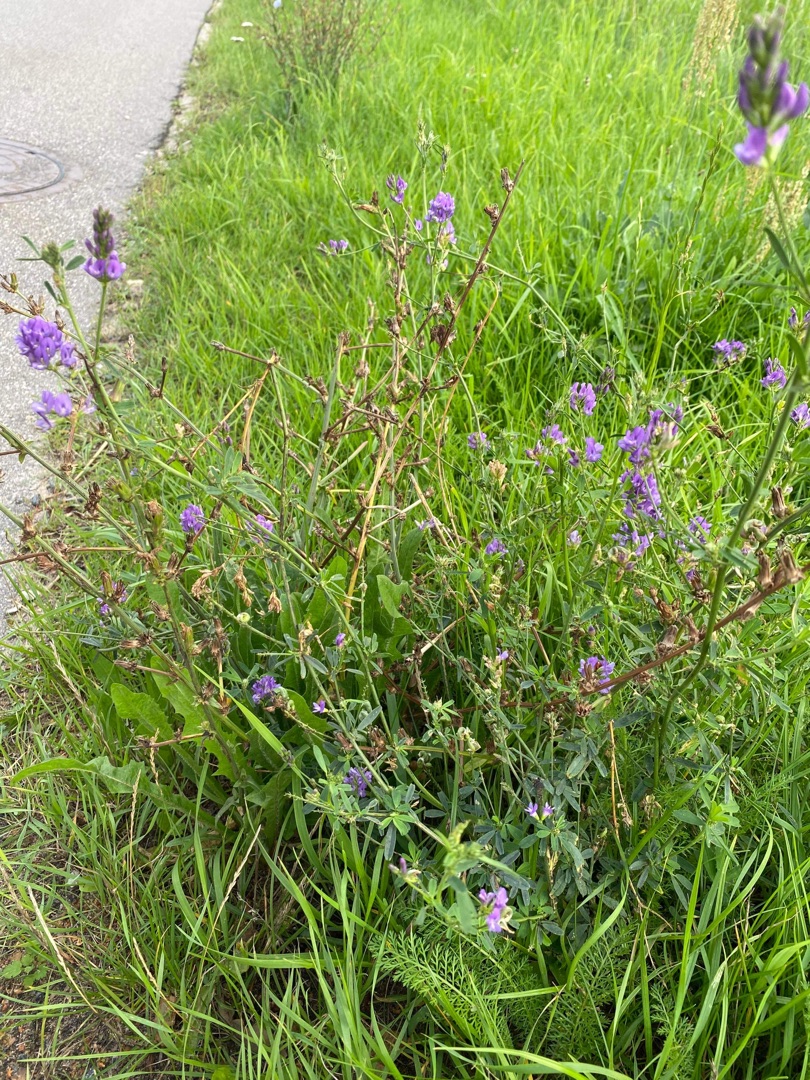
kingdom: Plantae
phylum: Tracheophyta
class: Magnoliopsida
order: Fabales
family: Fabaceae
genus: Medicago
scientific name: Medicago sativa
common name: Lucerne
